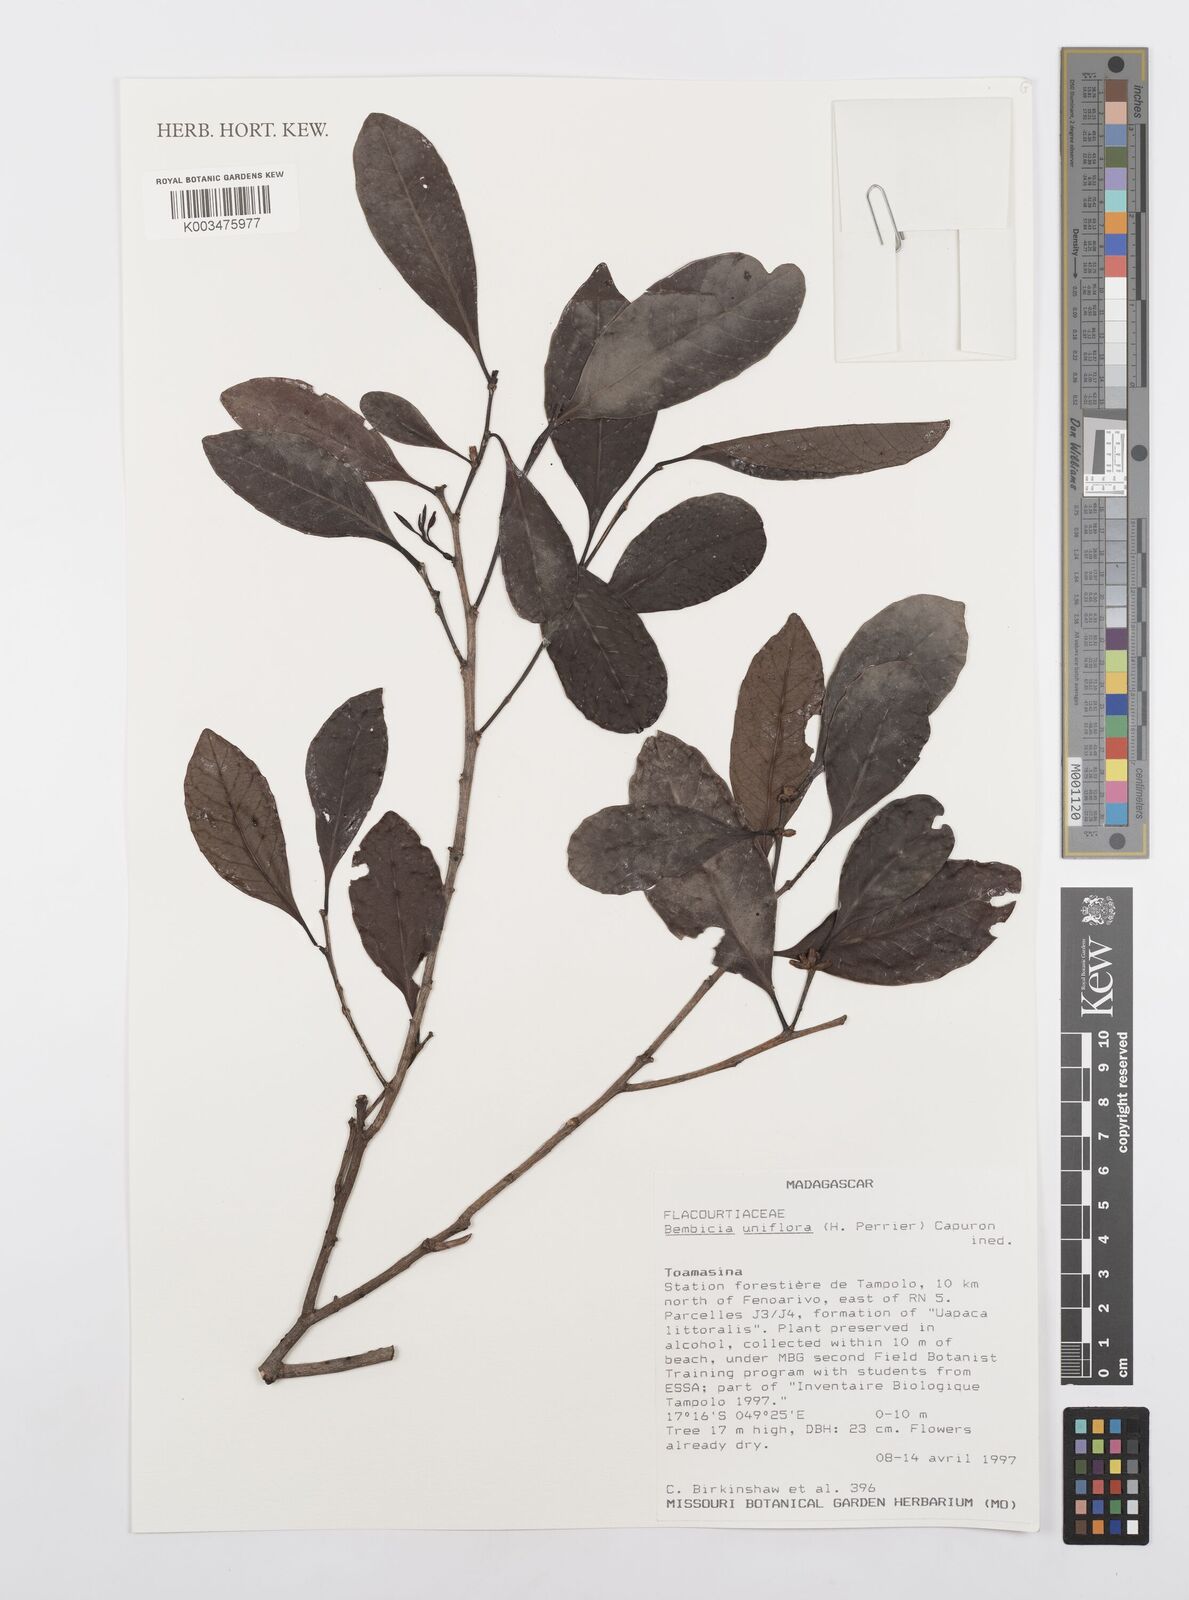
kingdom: Plantae
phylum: Tracheophyta
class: Magnoliopsida
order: Malpighiales
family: Salicaceae
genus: Bembicia
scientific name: Bembicia
